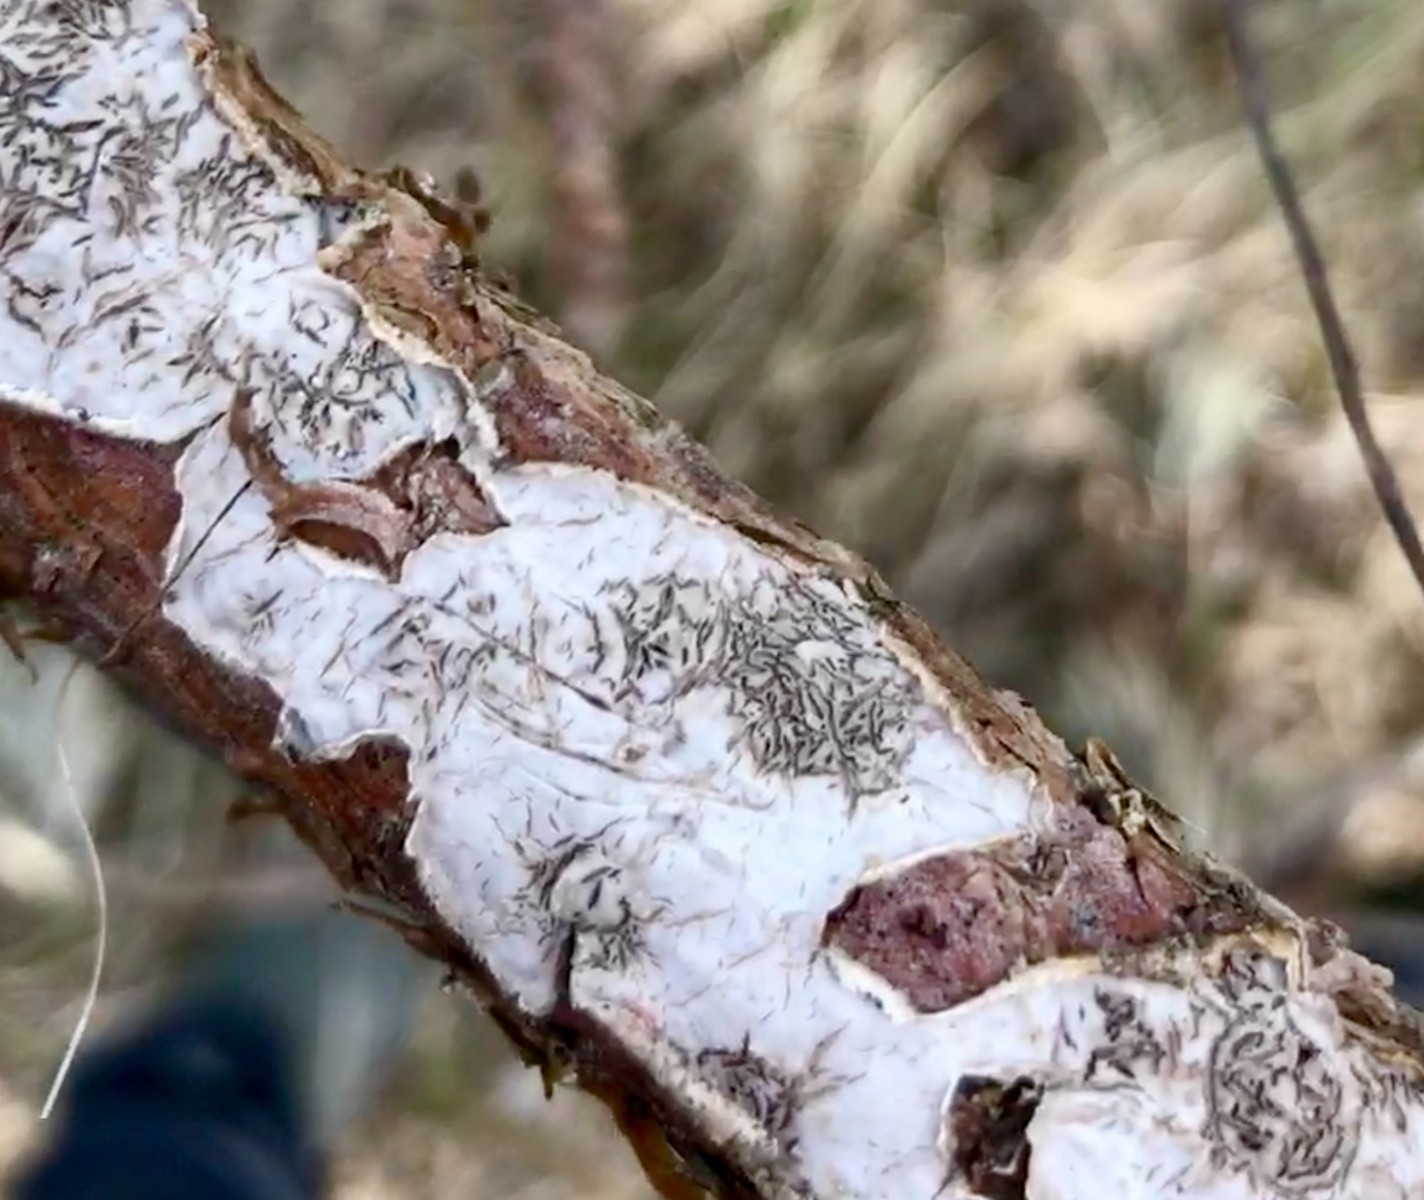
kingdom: Fungi
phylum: Basidiomycota
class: Agaricomycetes
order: Russulales
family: Stereaceae
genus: Stereum
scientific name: Stereum sanguinolentum
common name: blødende lædersvamp
